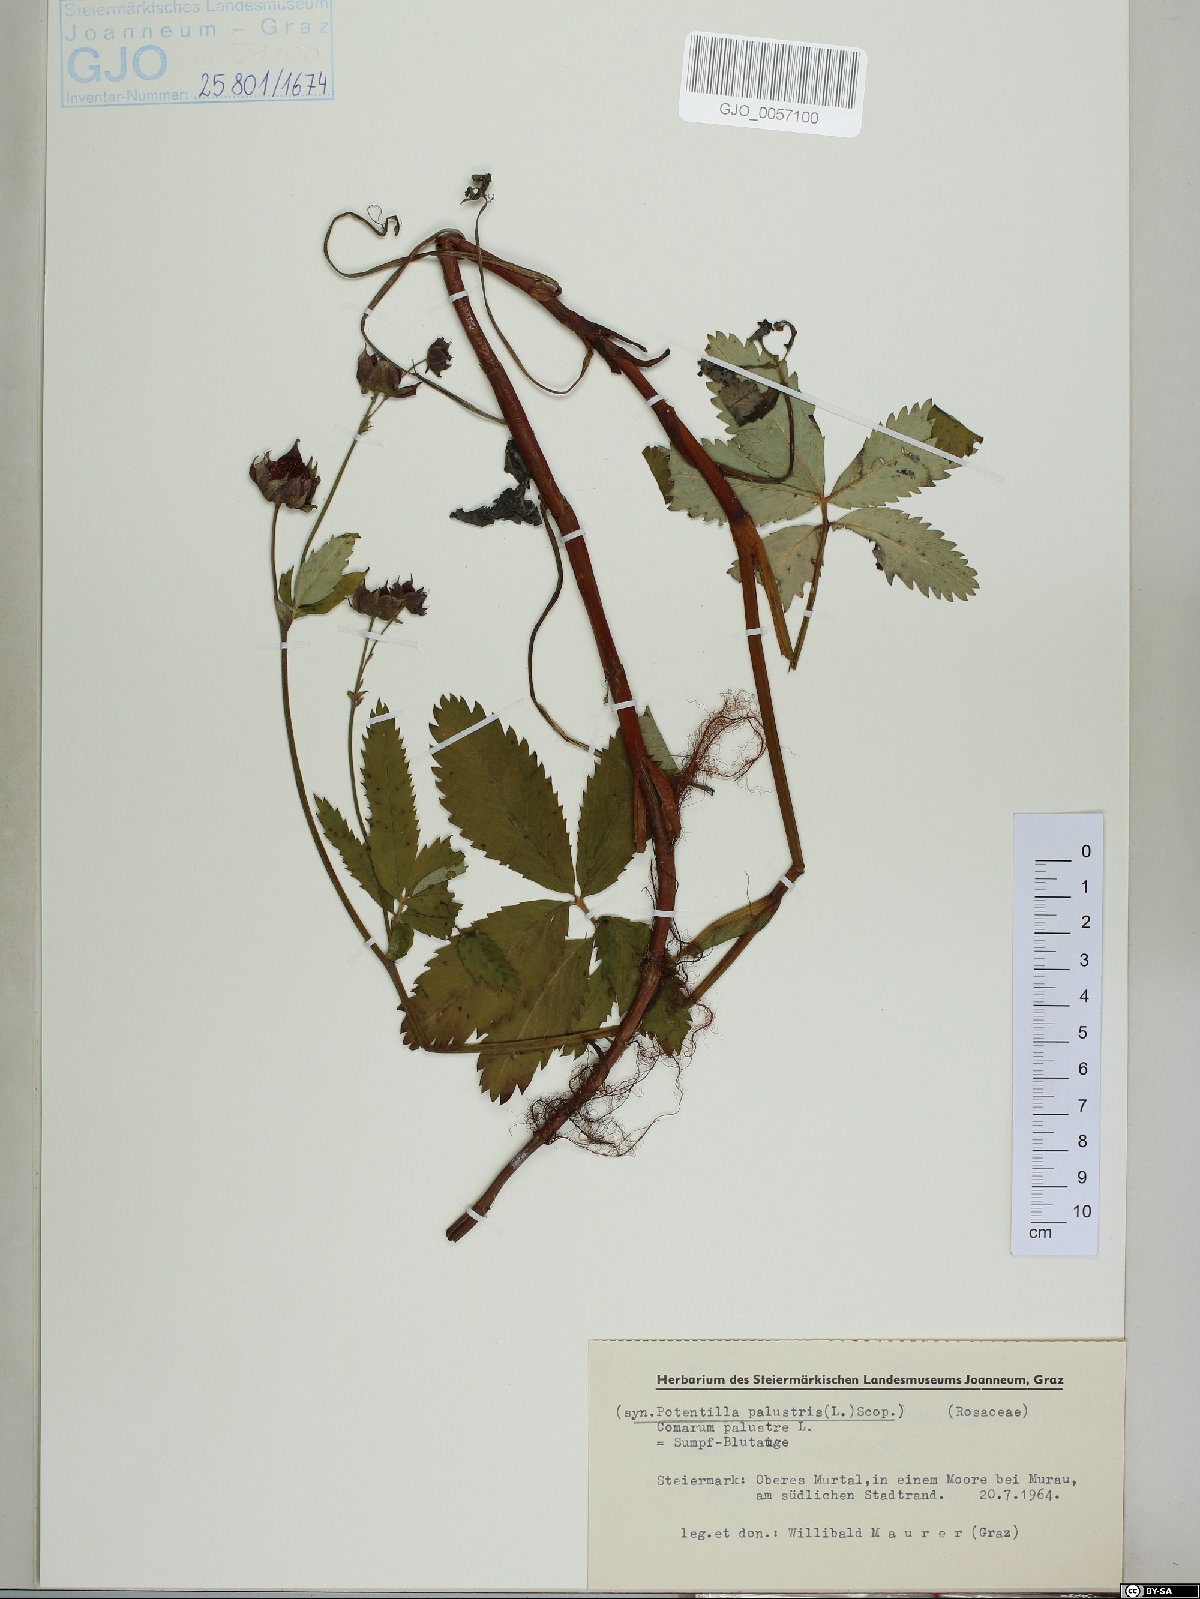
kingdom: Plantae
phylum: Tracheophyta
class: Magnoliopsida
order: Rosales
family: Rosaceae
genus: Comarum
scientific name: Comarum palustre
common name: Marsh cinquefoil
